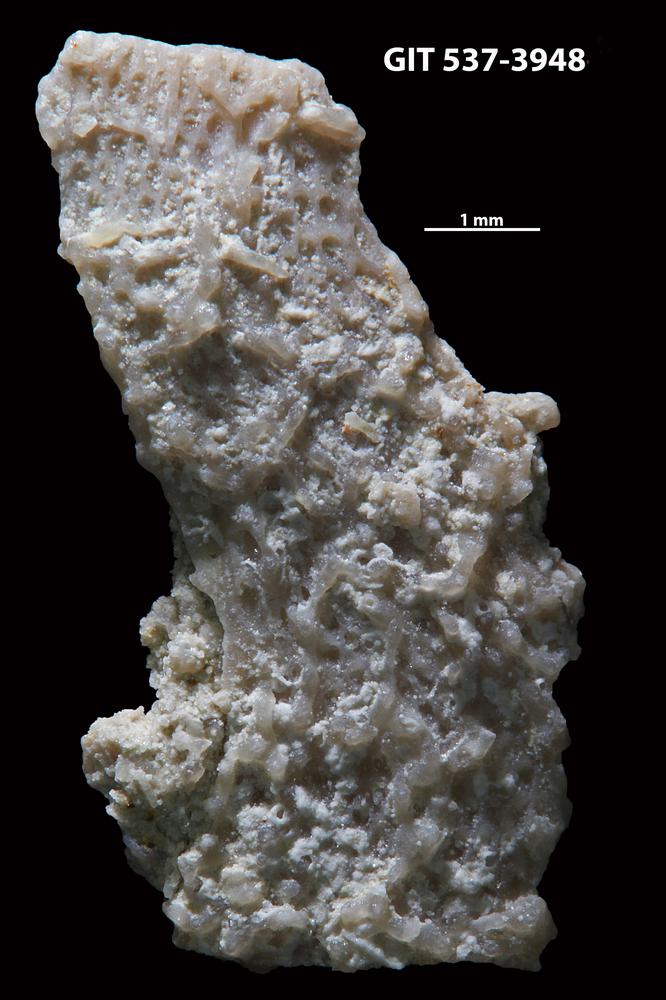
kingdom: Animalia
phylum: Bryozoa
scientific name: Bryozoa
